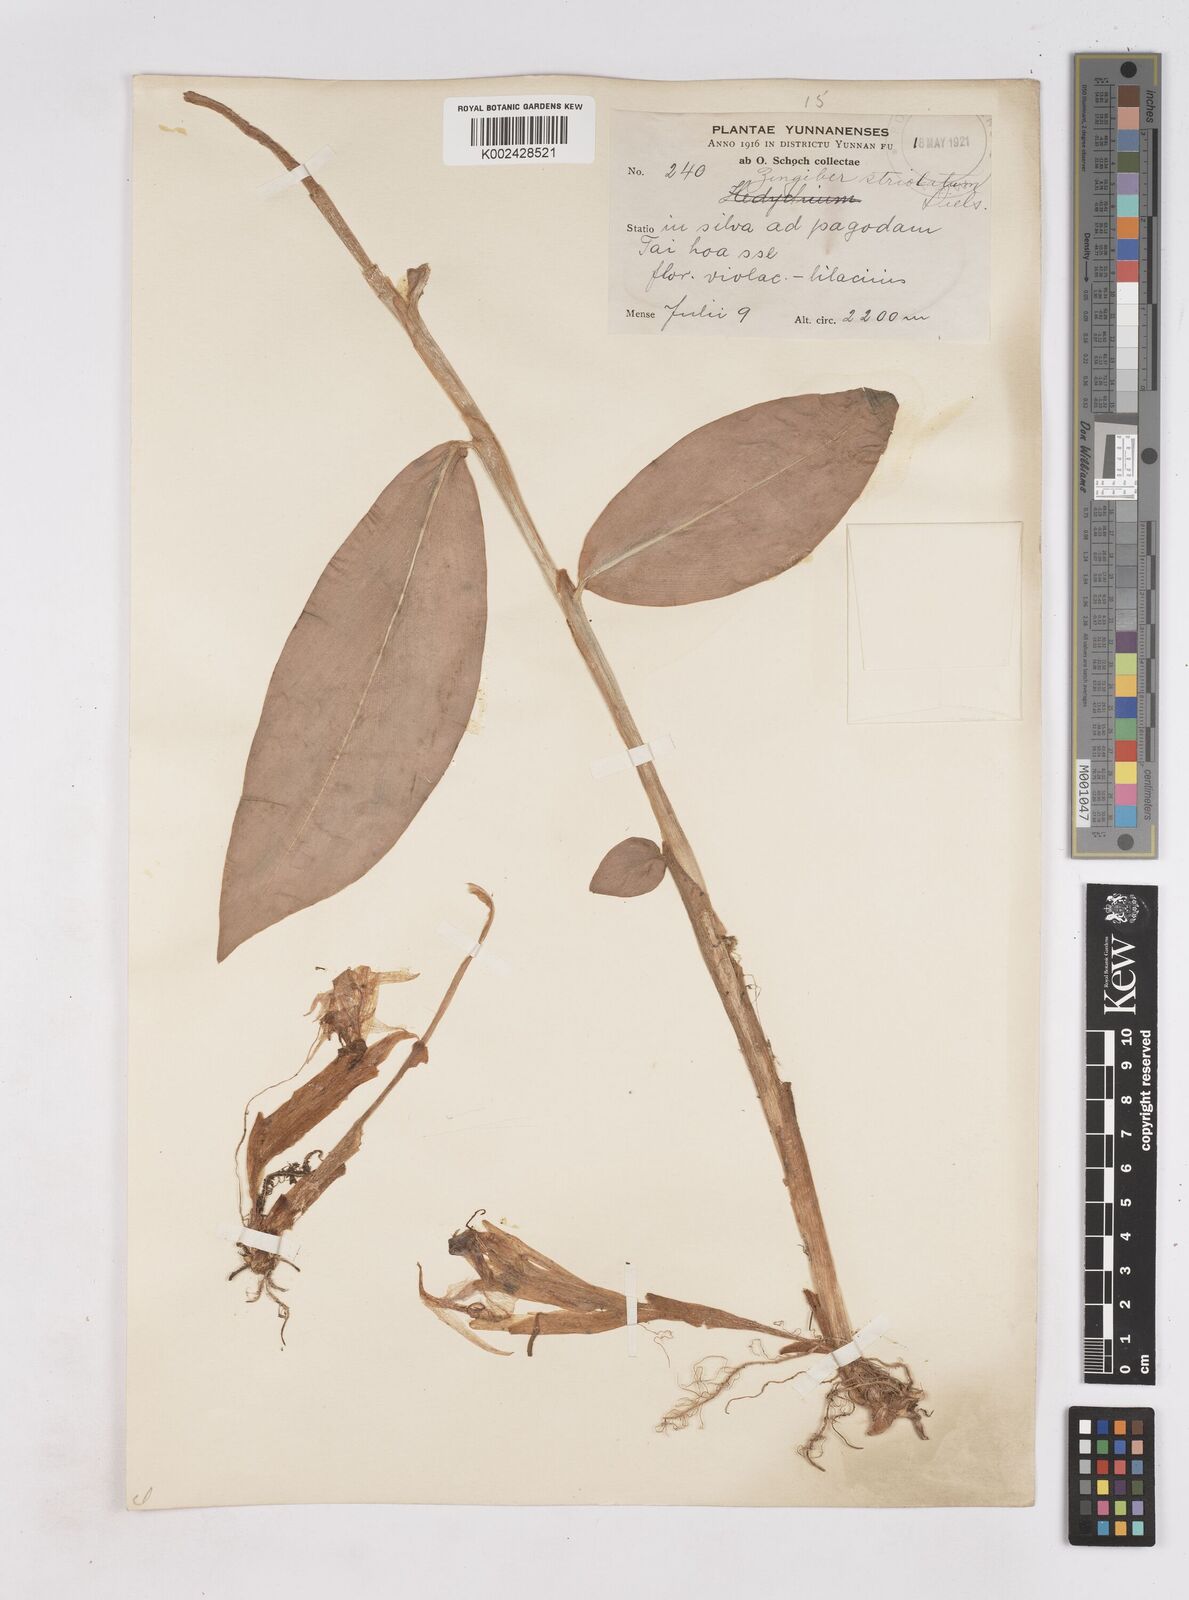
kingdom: Plantae
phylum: Tracheophyta
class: Liliopsida
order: Zingiberales
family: Zingiberaceae
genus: Zingiber
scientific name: Zingiber striolatum
